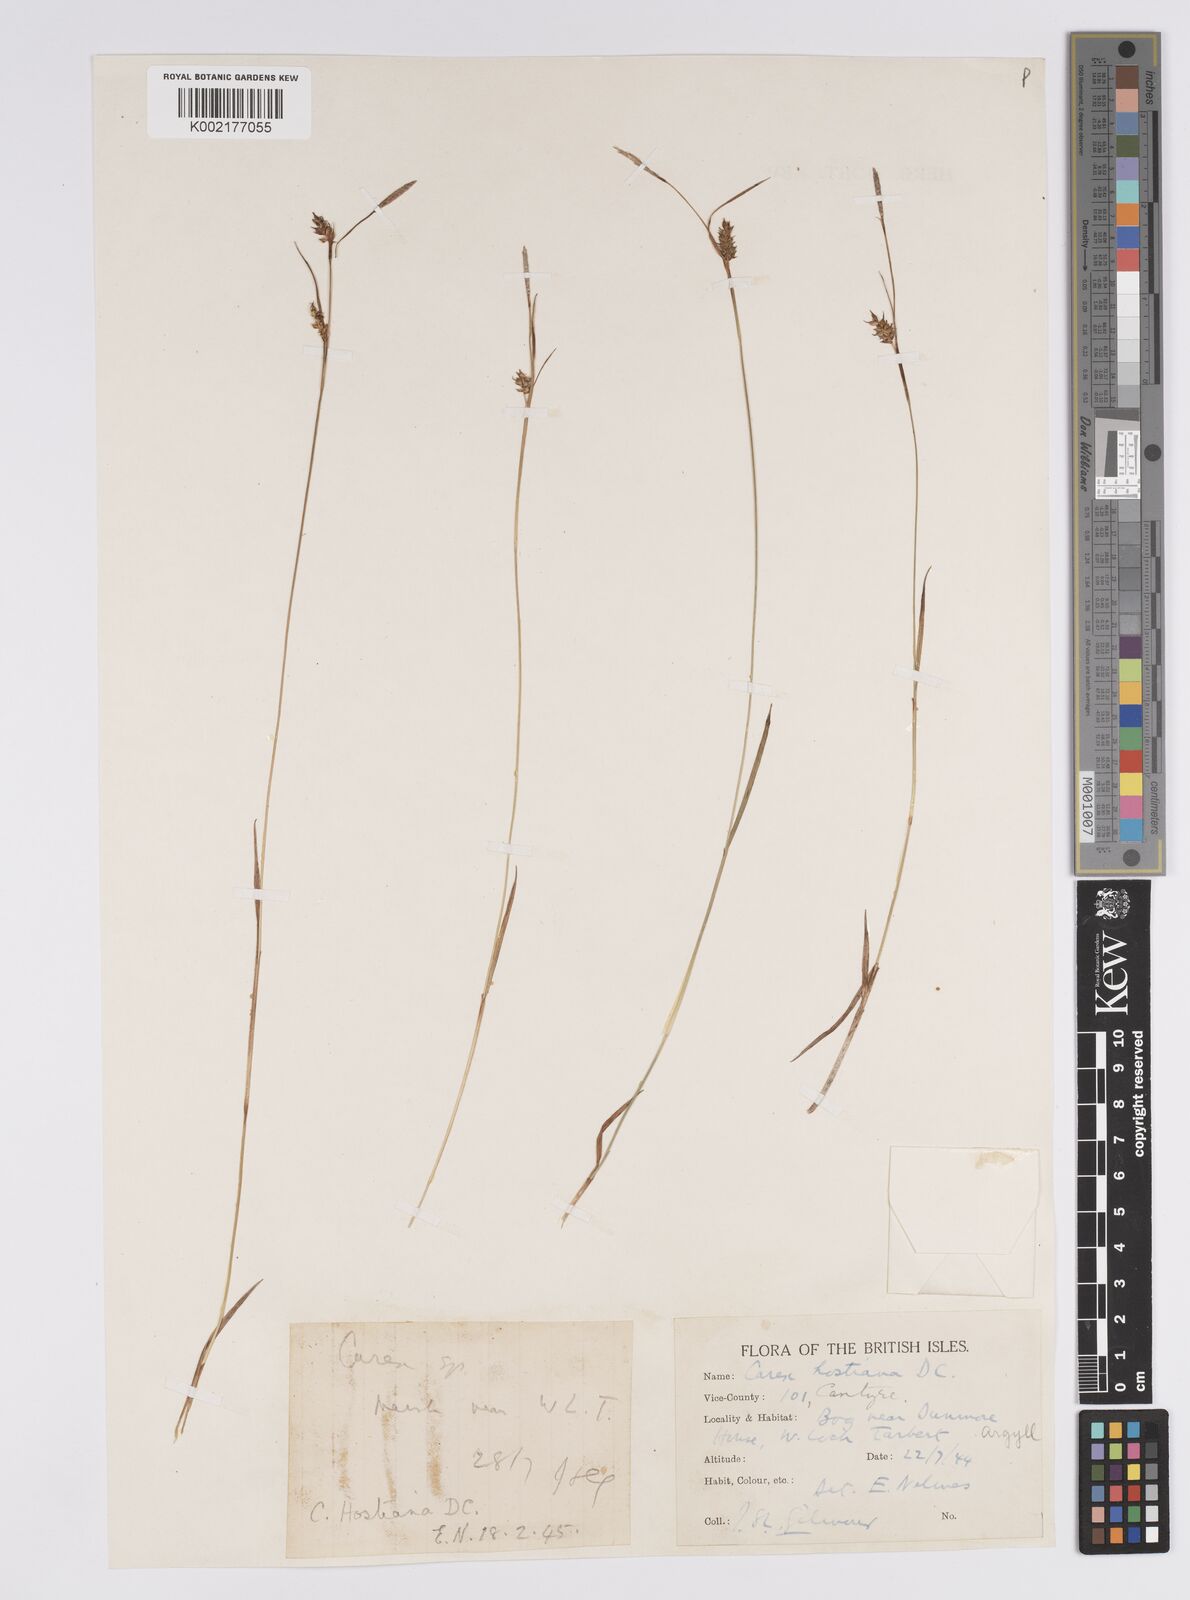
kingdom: Plantae
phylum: Tracheophyta
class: Liliopsida
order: Poales
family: Cyperaceae
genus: Carex
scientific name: Carex hostiana
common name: Tawny sedge
